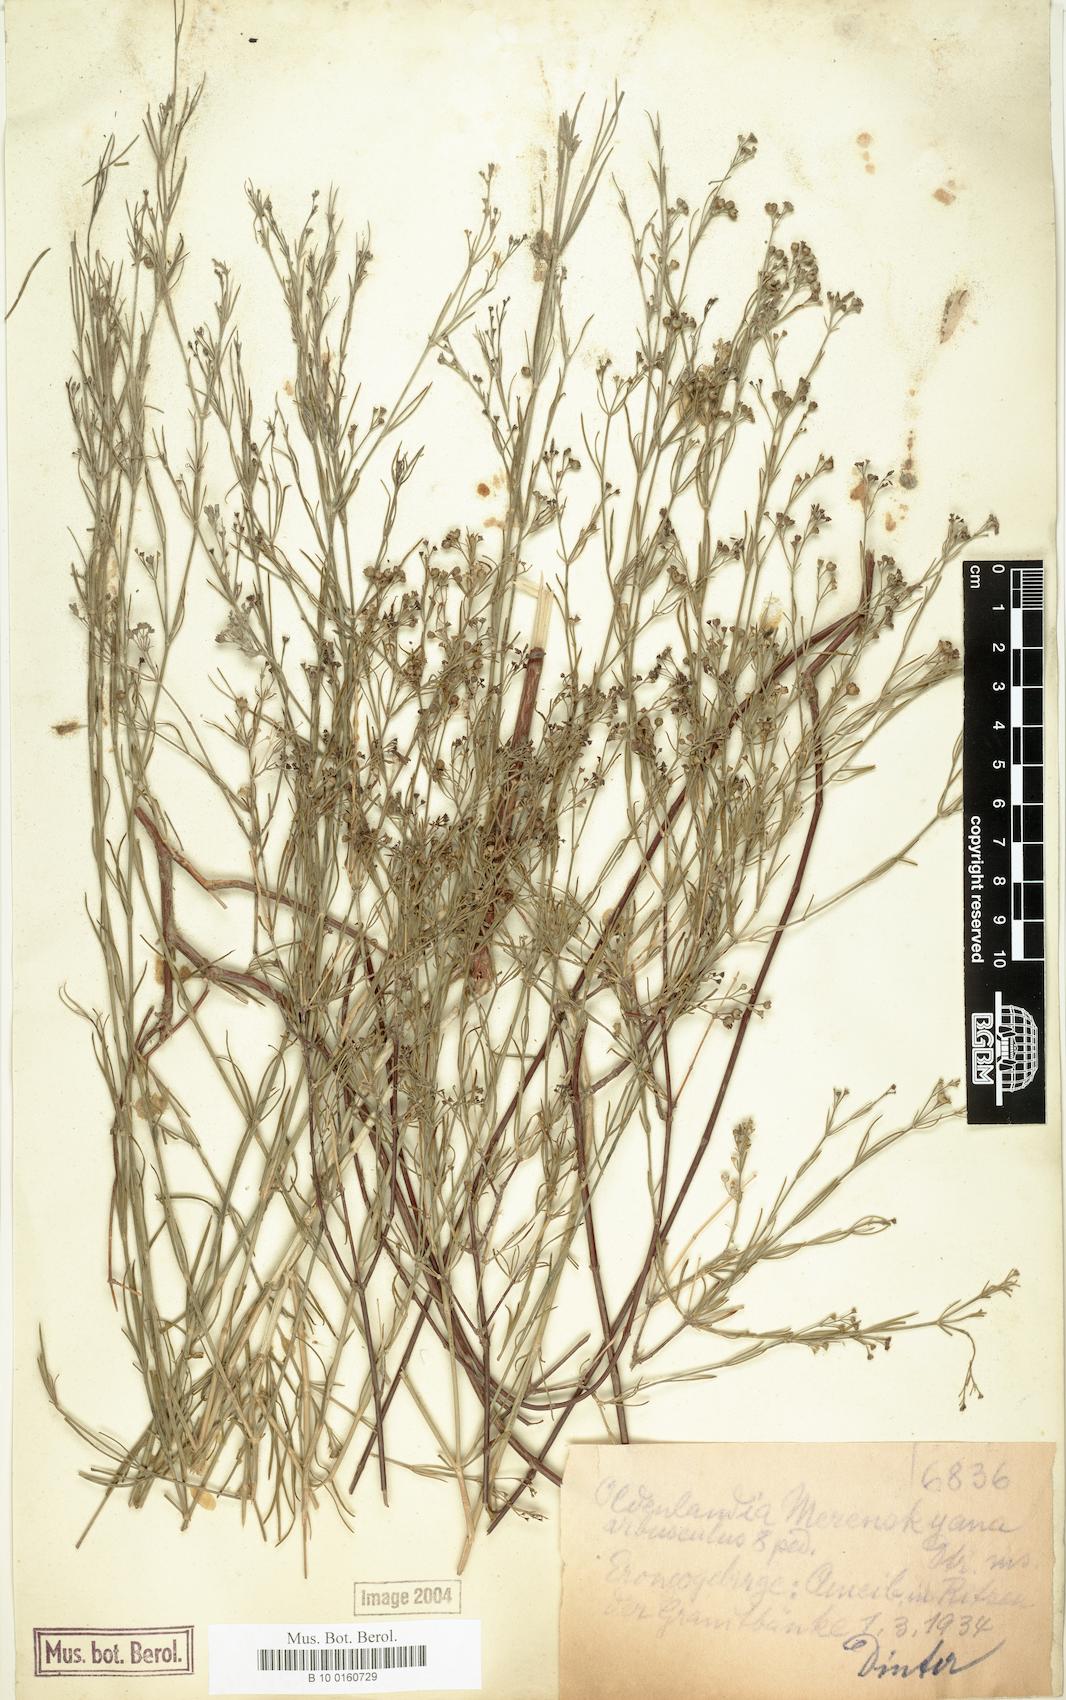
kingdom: Plantae
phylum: Tracheophyta
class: Magnoliopsida
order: Gentianales
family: Rubiaceae
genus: Amphiasma
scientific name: Amphiasma merenskyanum
